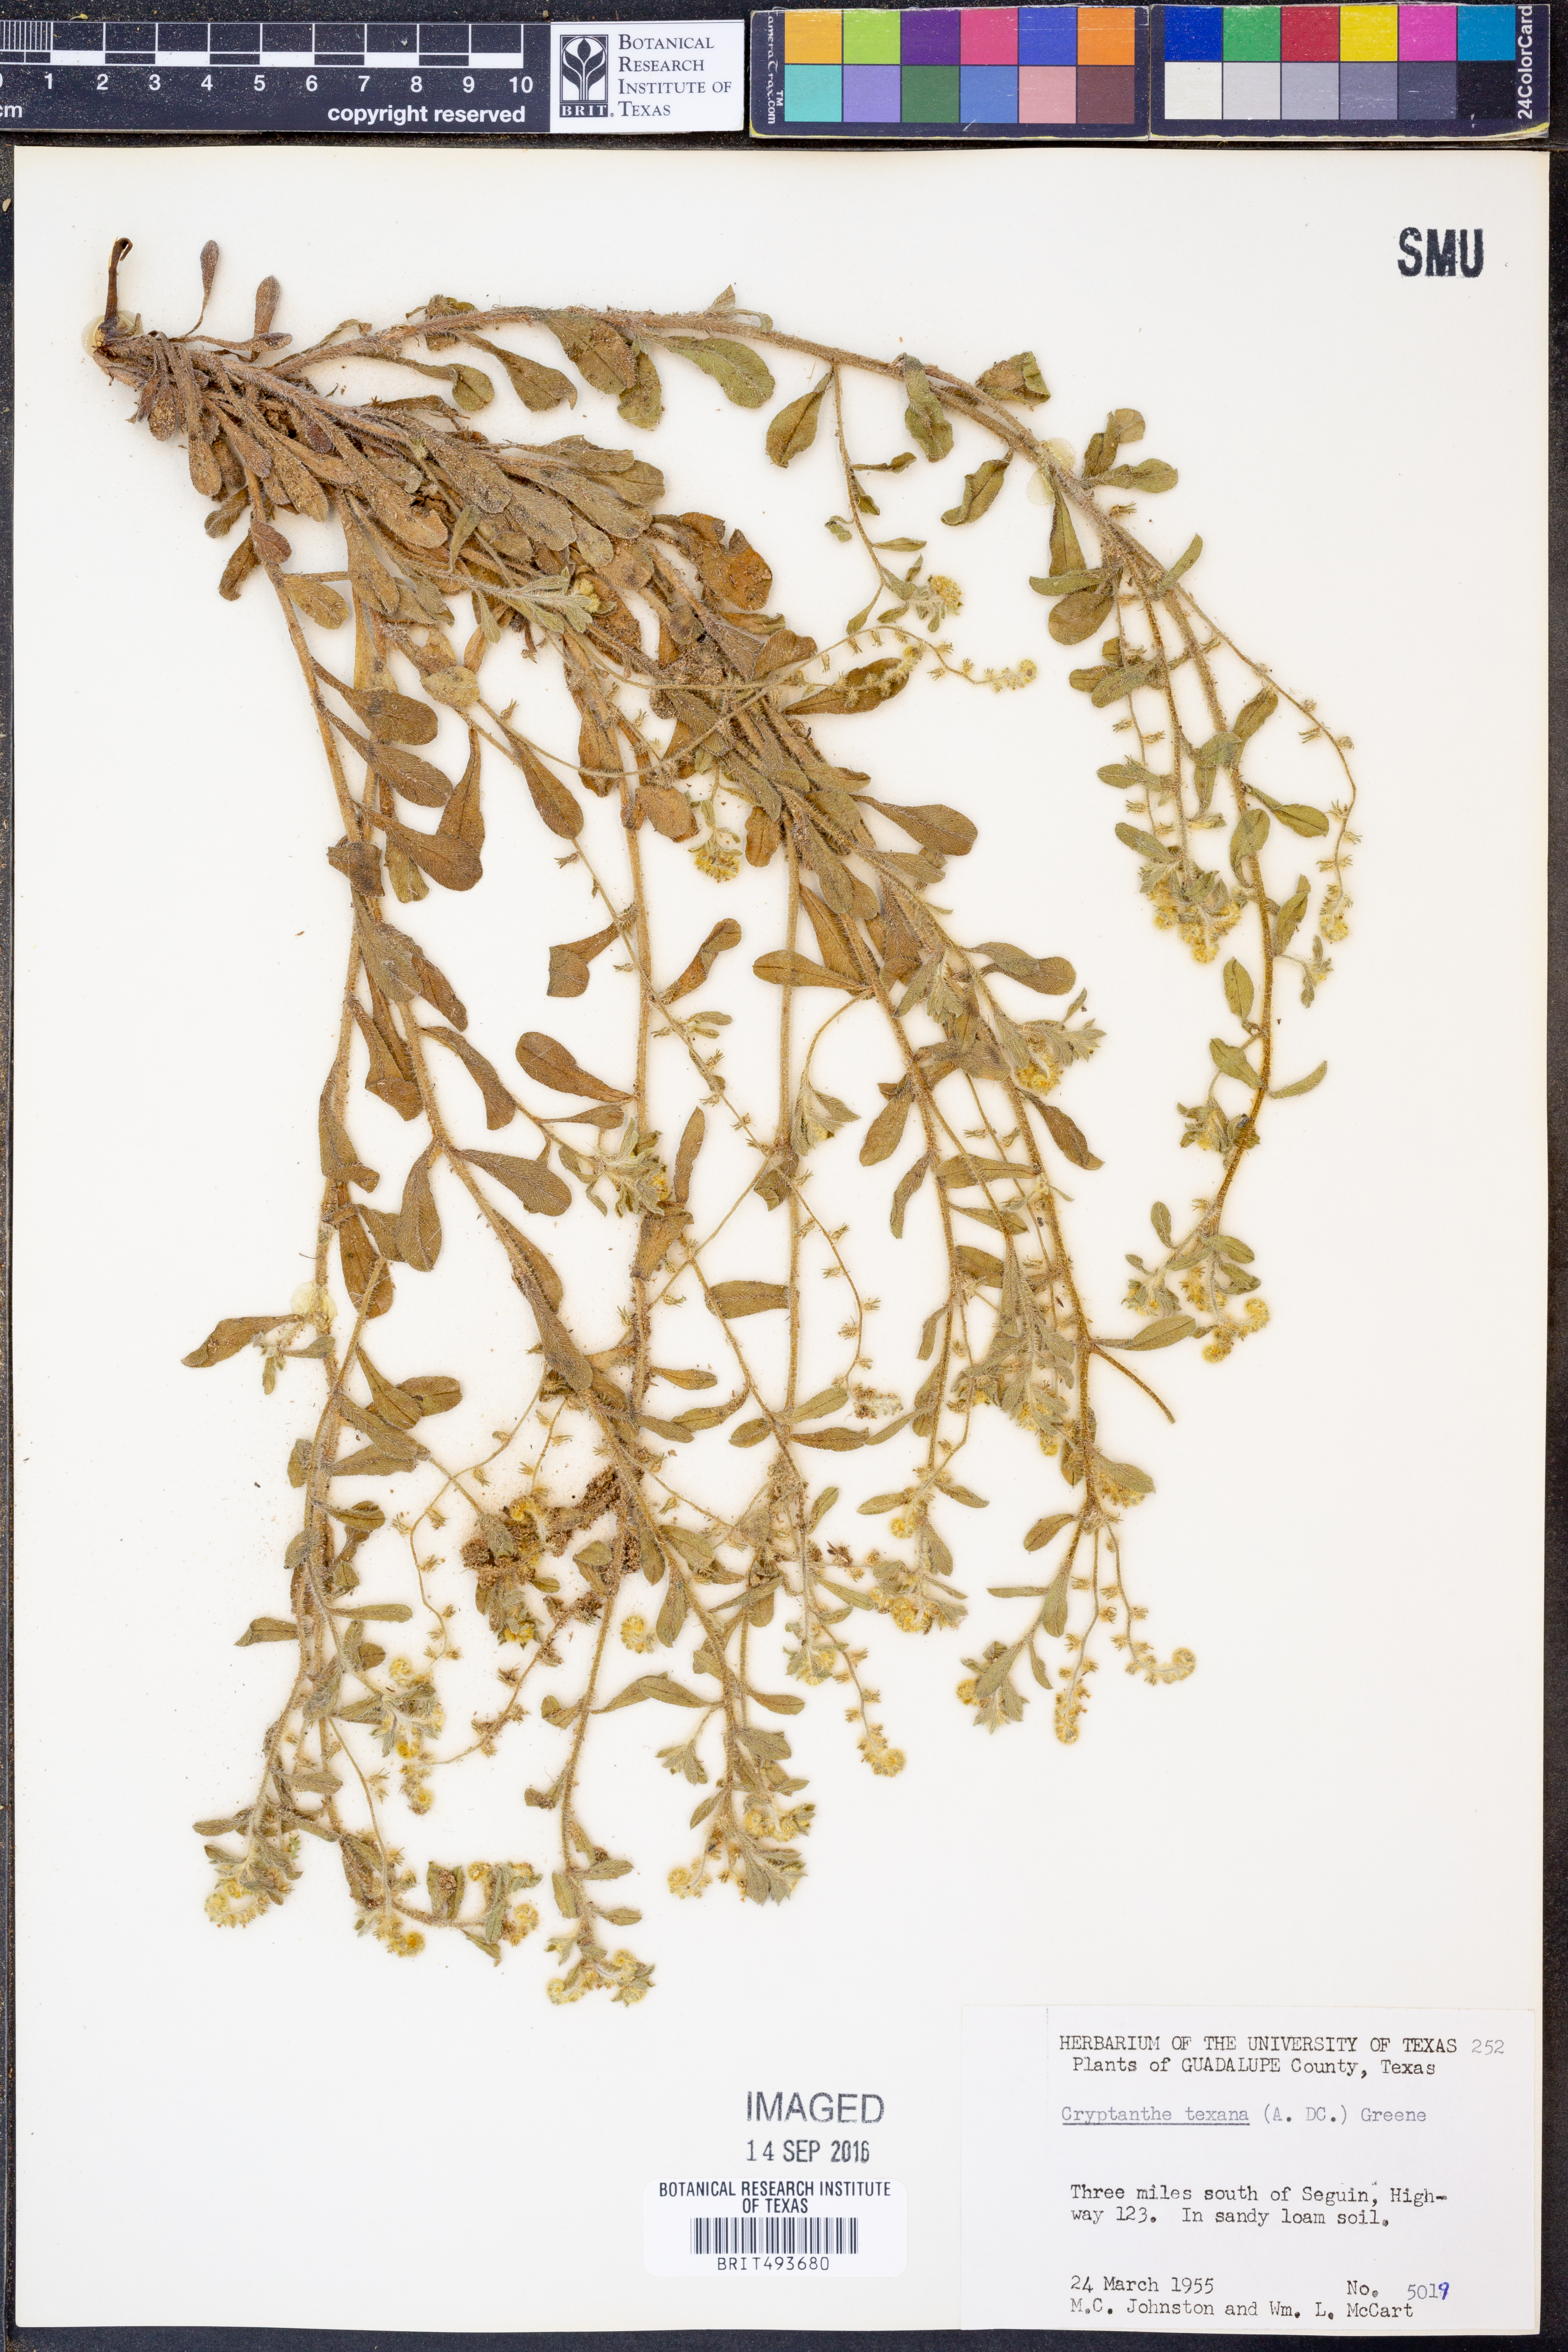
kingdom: Plantae
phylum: Tracheophyta
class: Magnoliopsida
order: Boraginales
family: Boraginaceae
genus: Cryptantha
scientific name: Cryptantha texana
